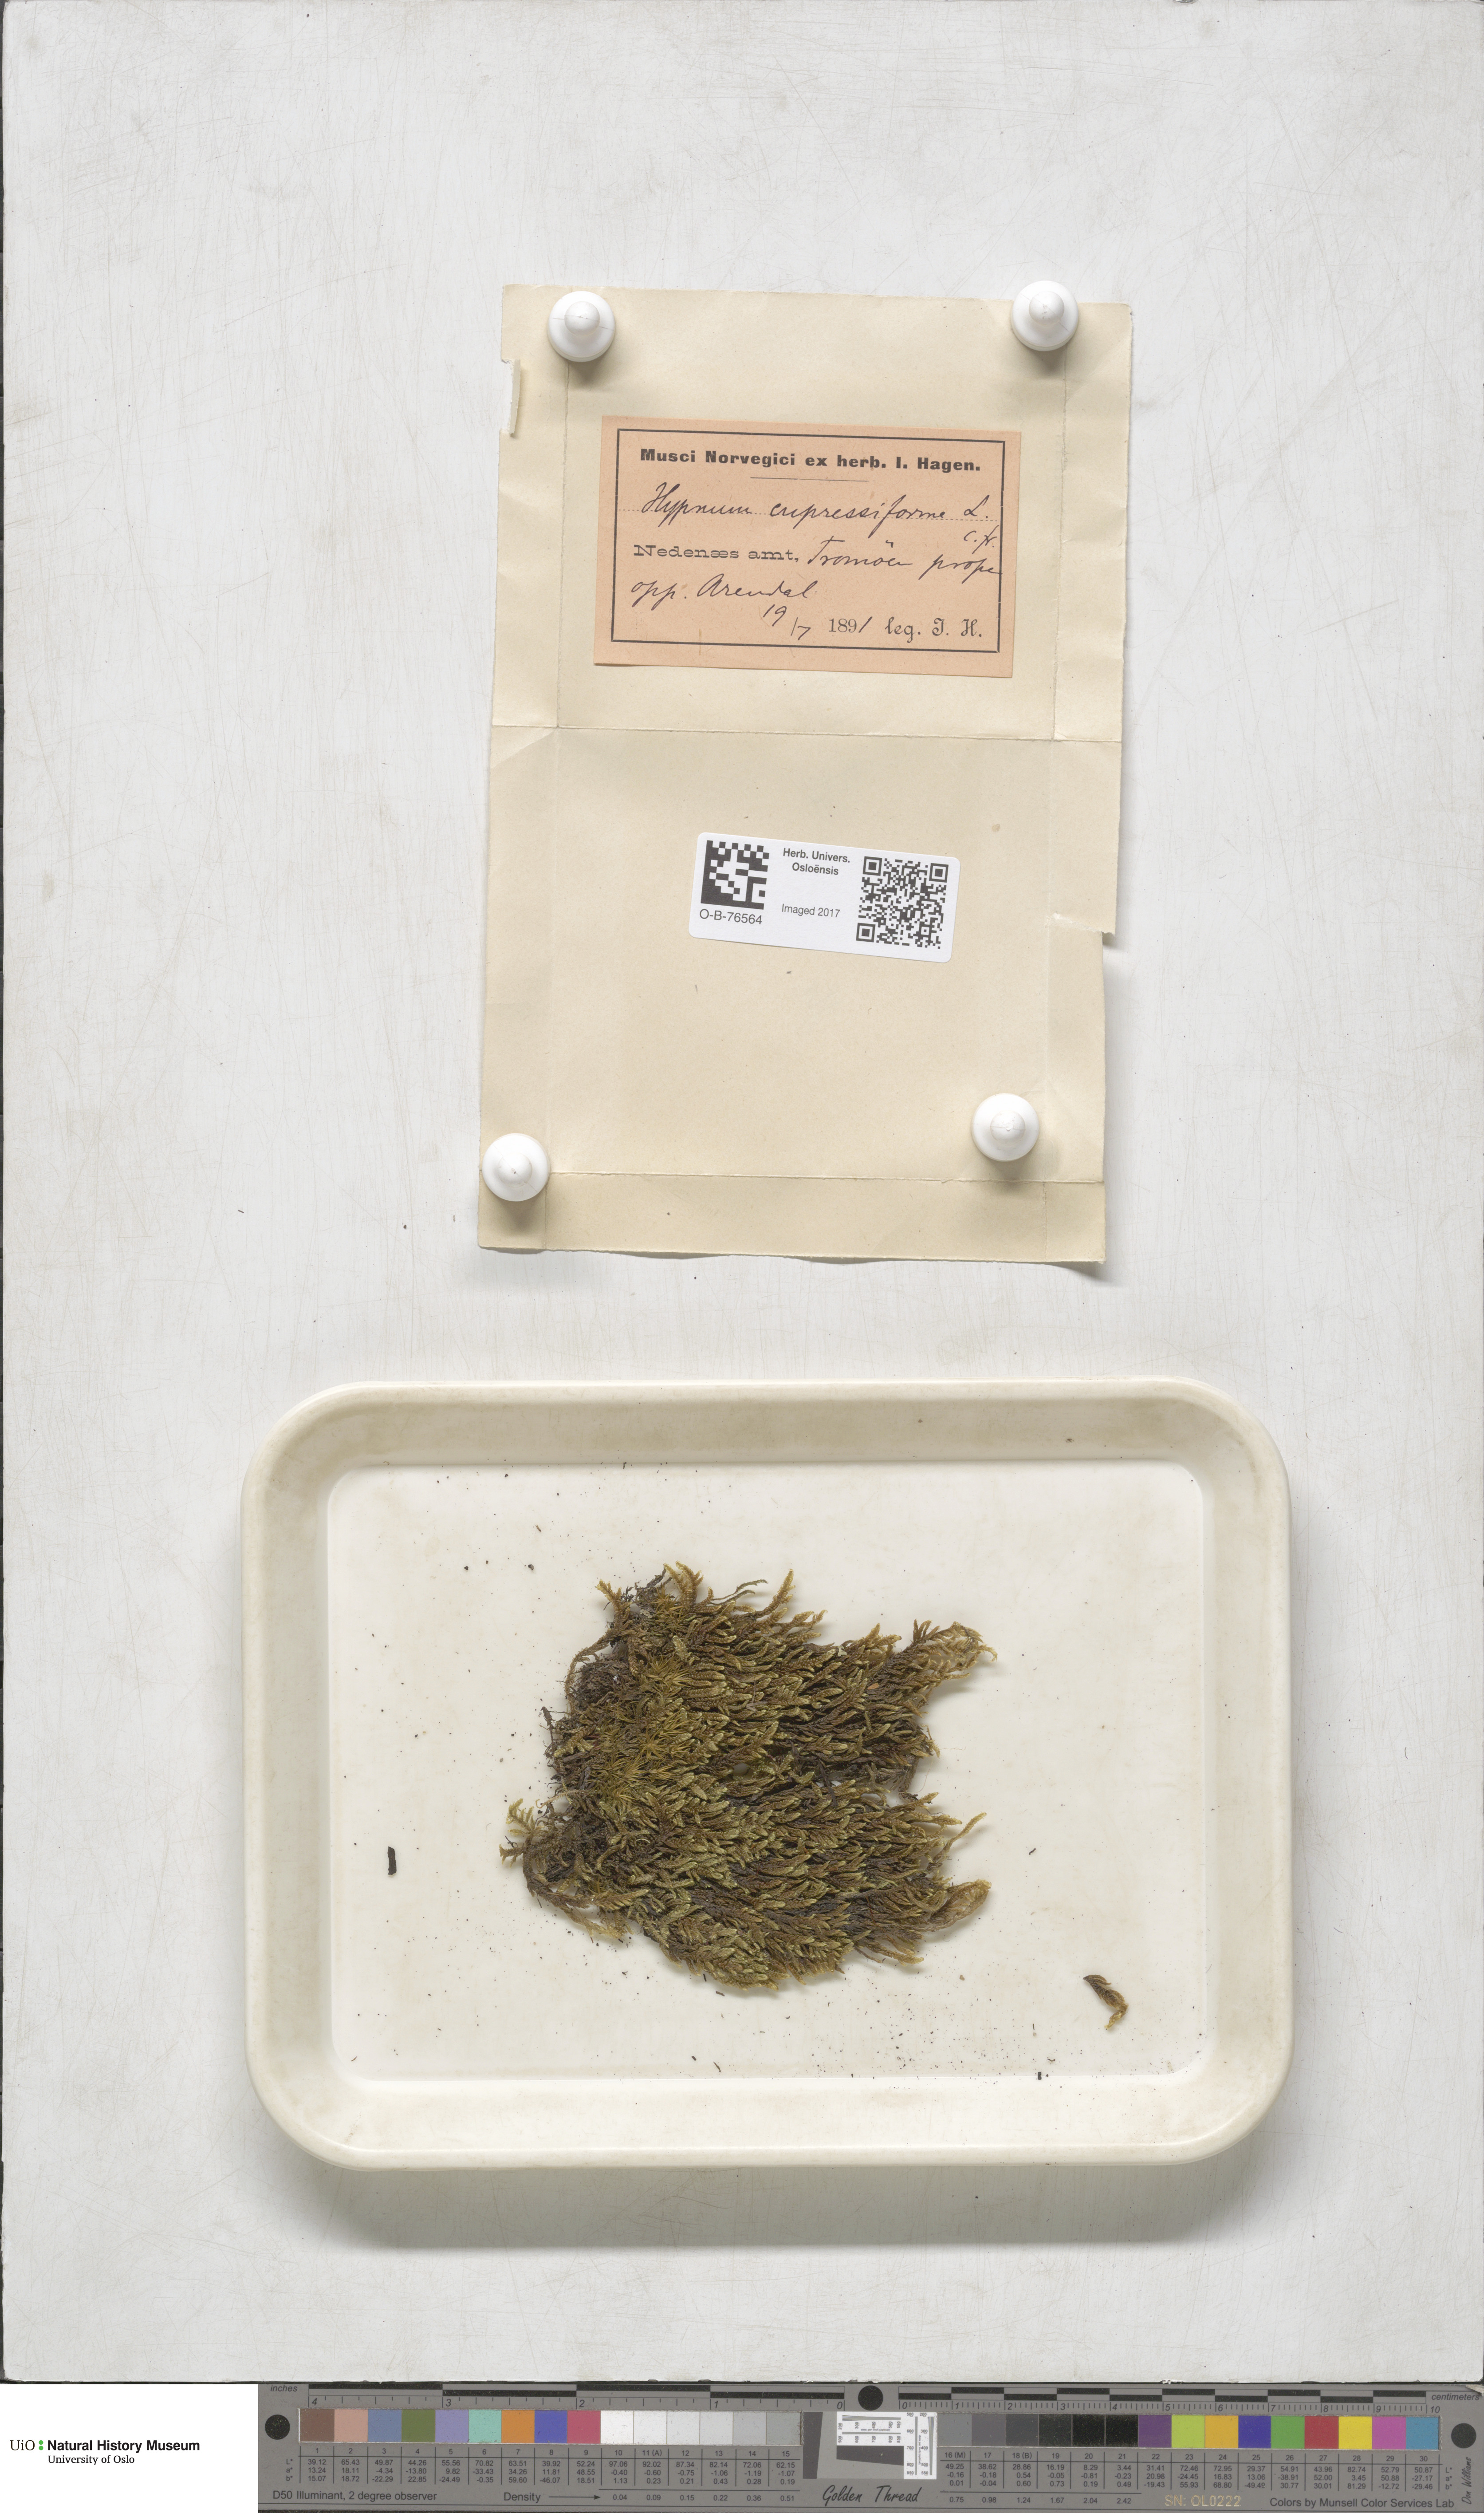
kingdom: Plantae
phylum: Bryophyta
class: Bryopsida
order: Hypnales
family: Hypnaceae
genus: Hypnum
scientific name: Hypnum cupressiforme
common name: Cypress-leaved plait-moss
